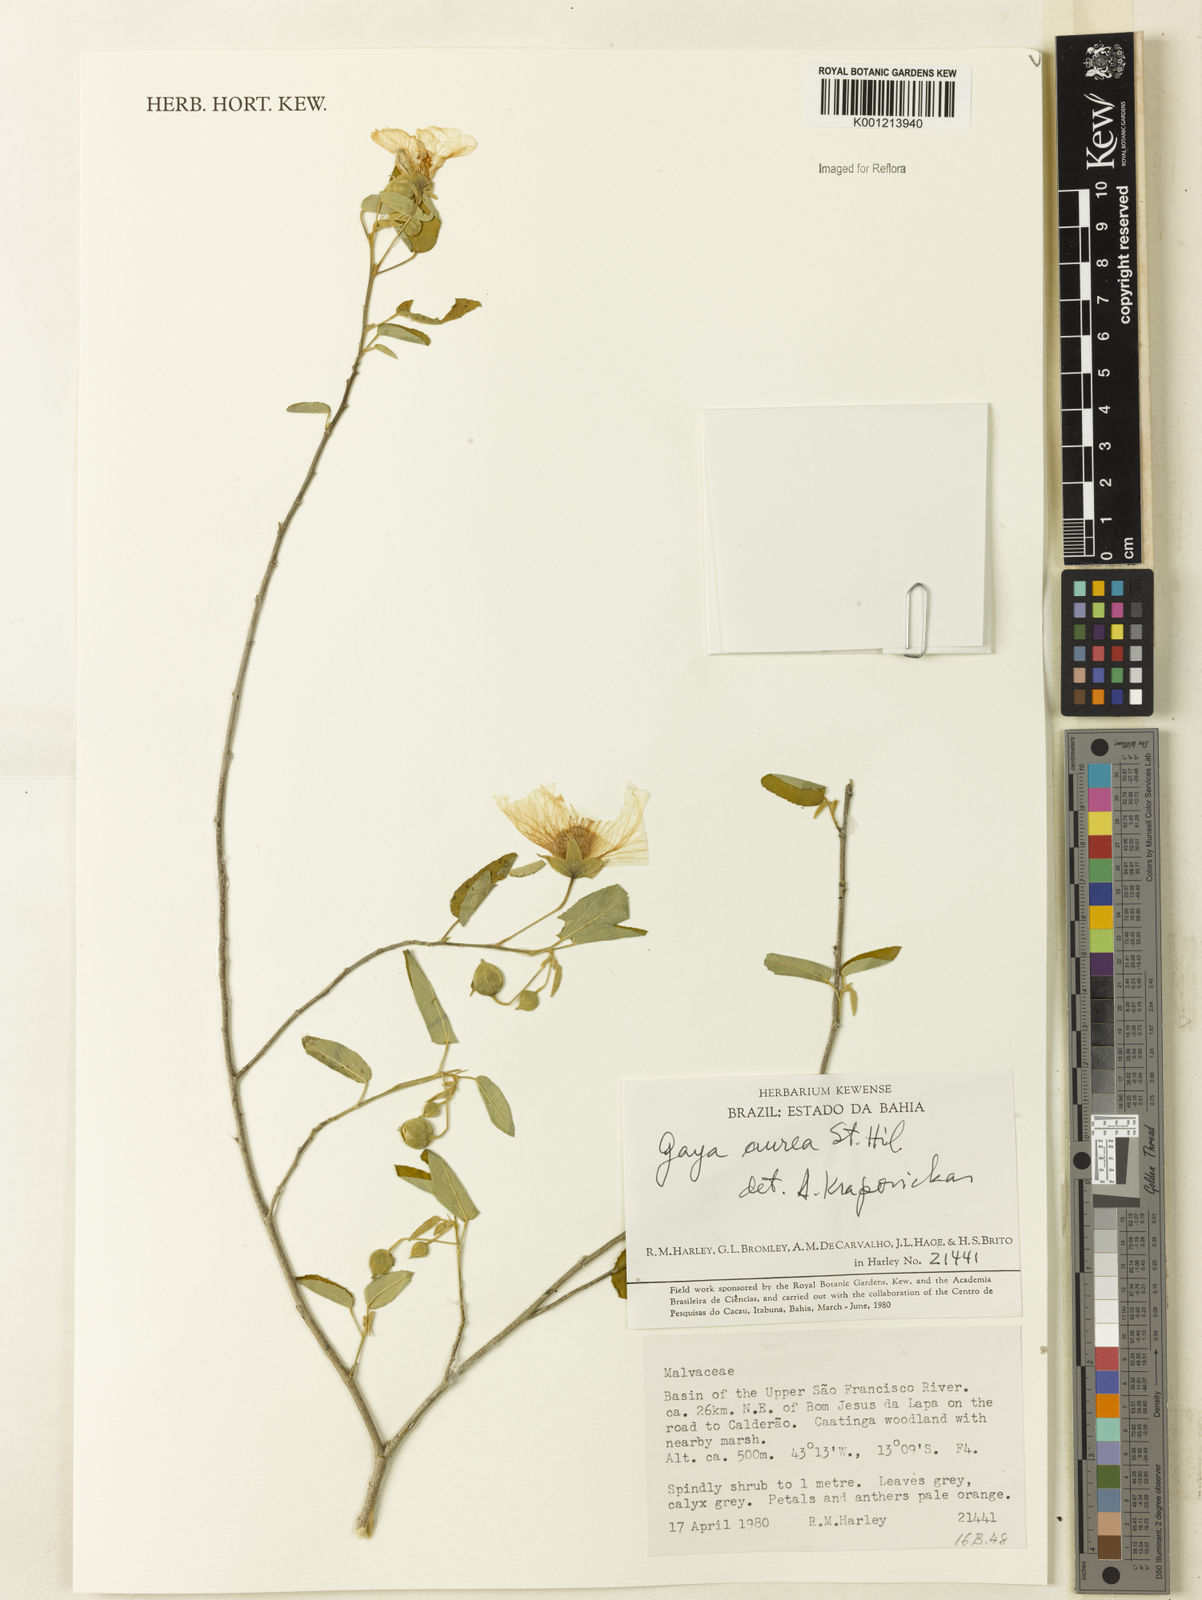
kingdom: Plantae
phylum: Tracheophyta
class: Magnoliopsida
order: Malvales
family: Malvaceae
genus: Gaya
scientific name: Gaya aurea
